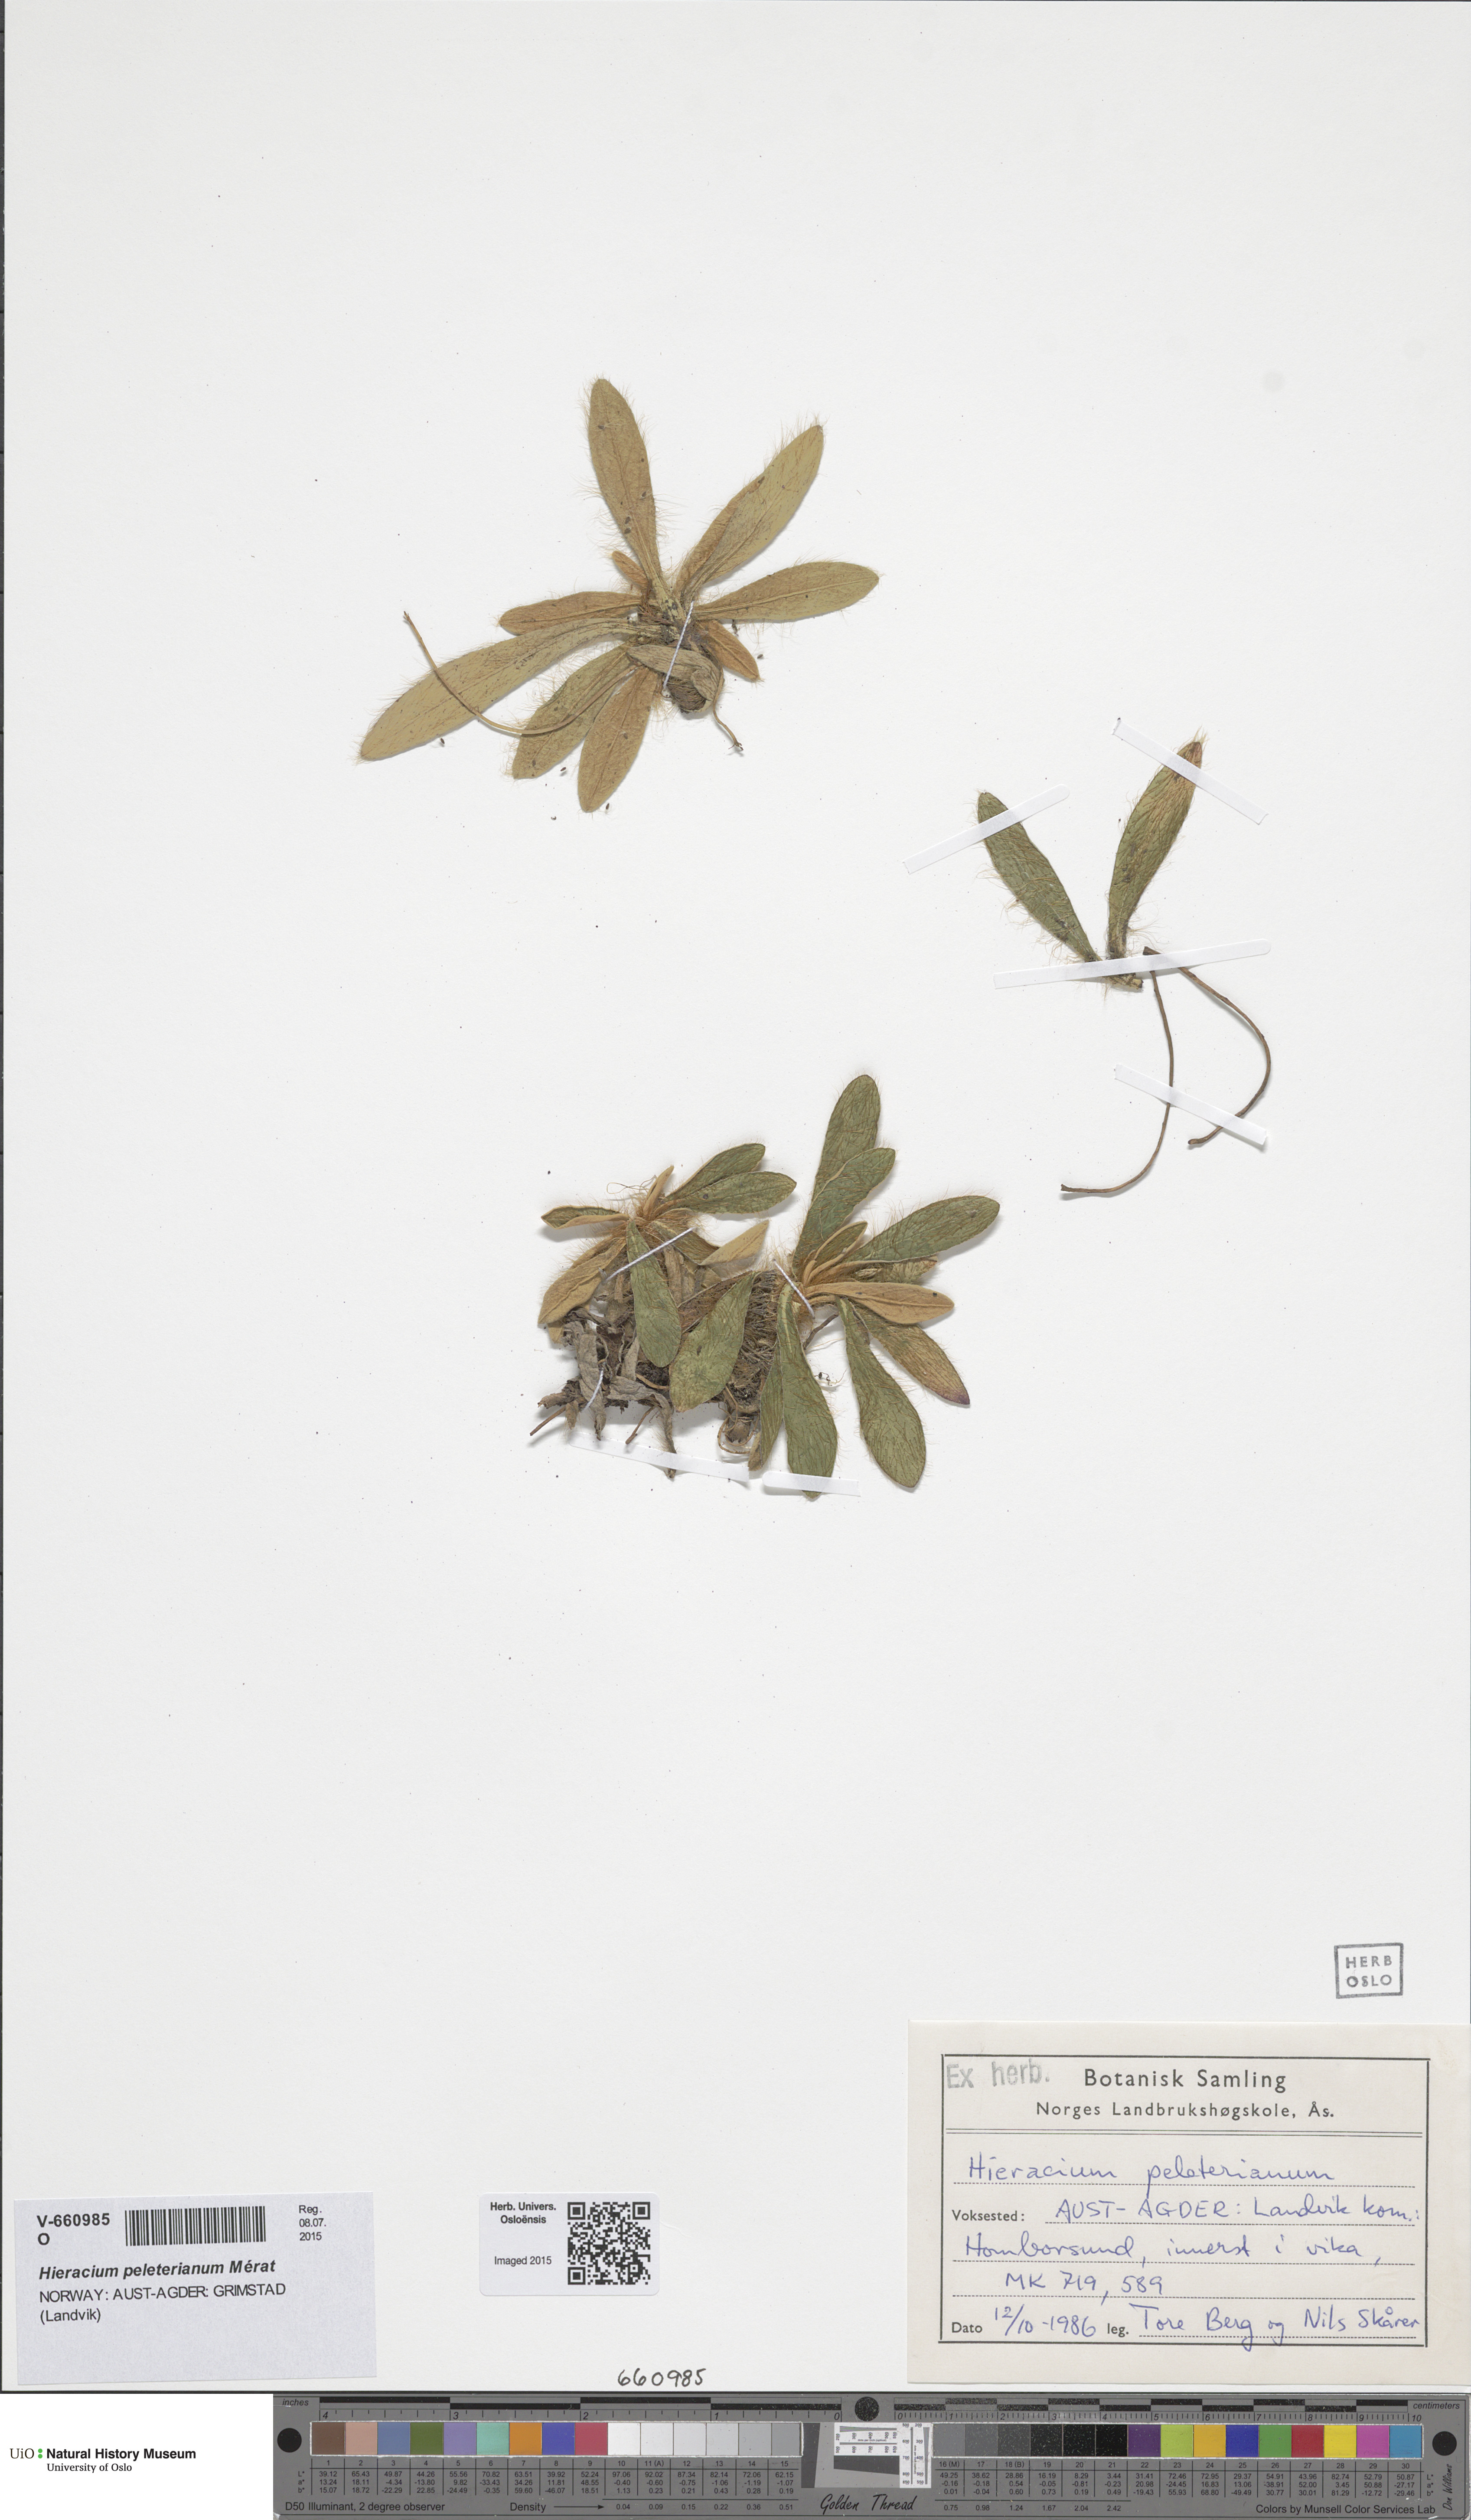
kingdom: Plantae
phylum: Tracheophyta
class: Magnoliopsida
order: Asterales
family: Asteraceae
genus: Pilosella
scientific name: Pilosella peleteriana
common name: Shaggy mouse-ear-hawkweed
